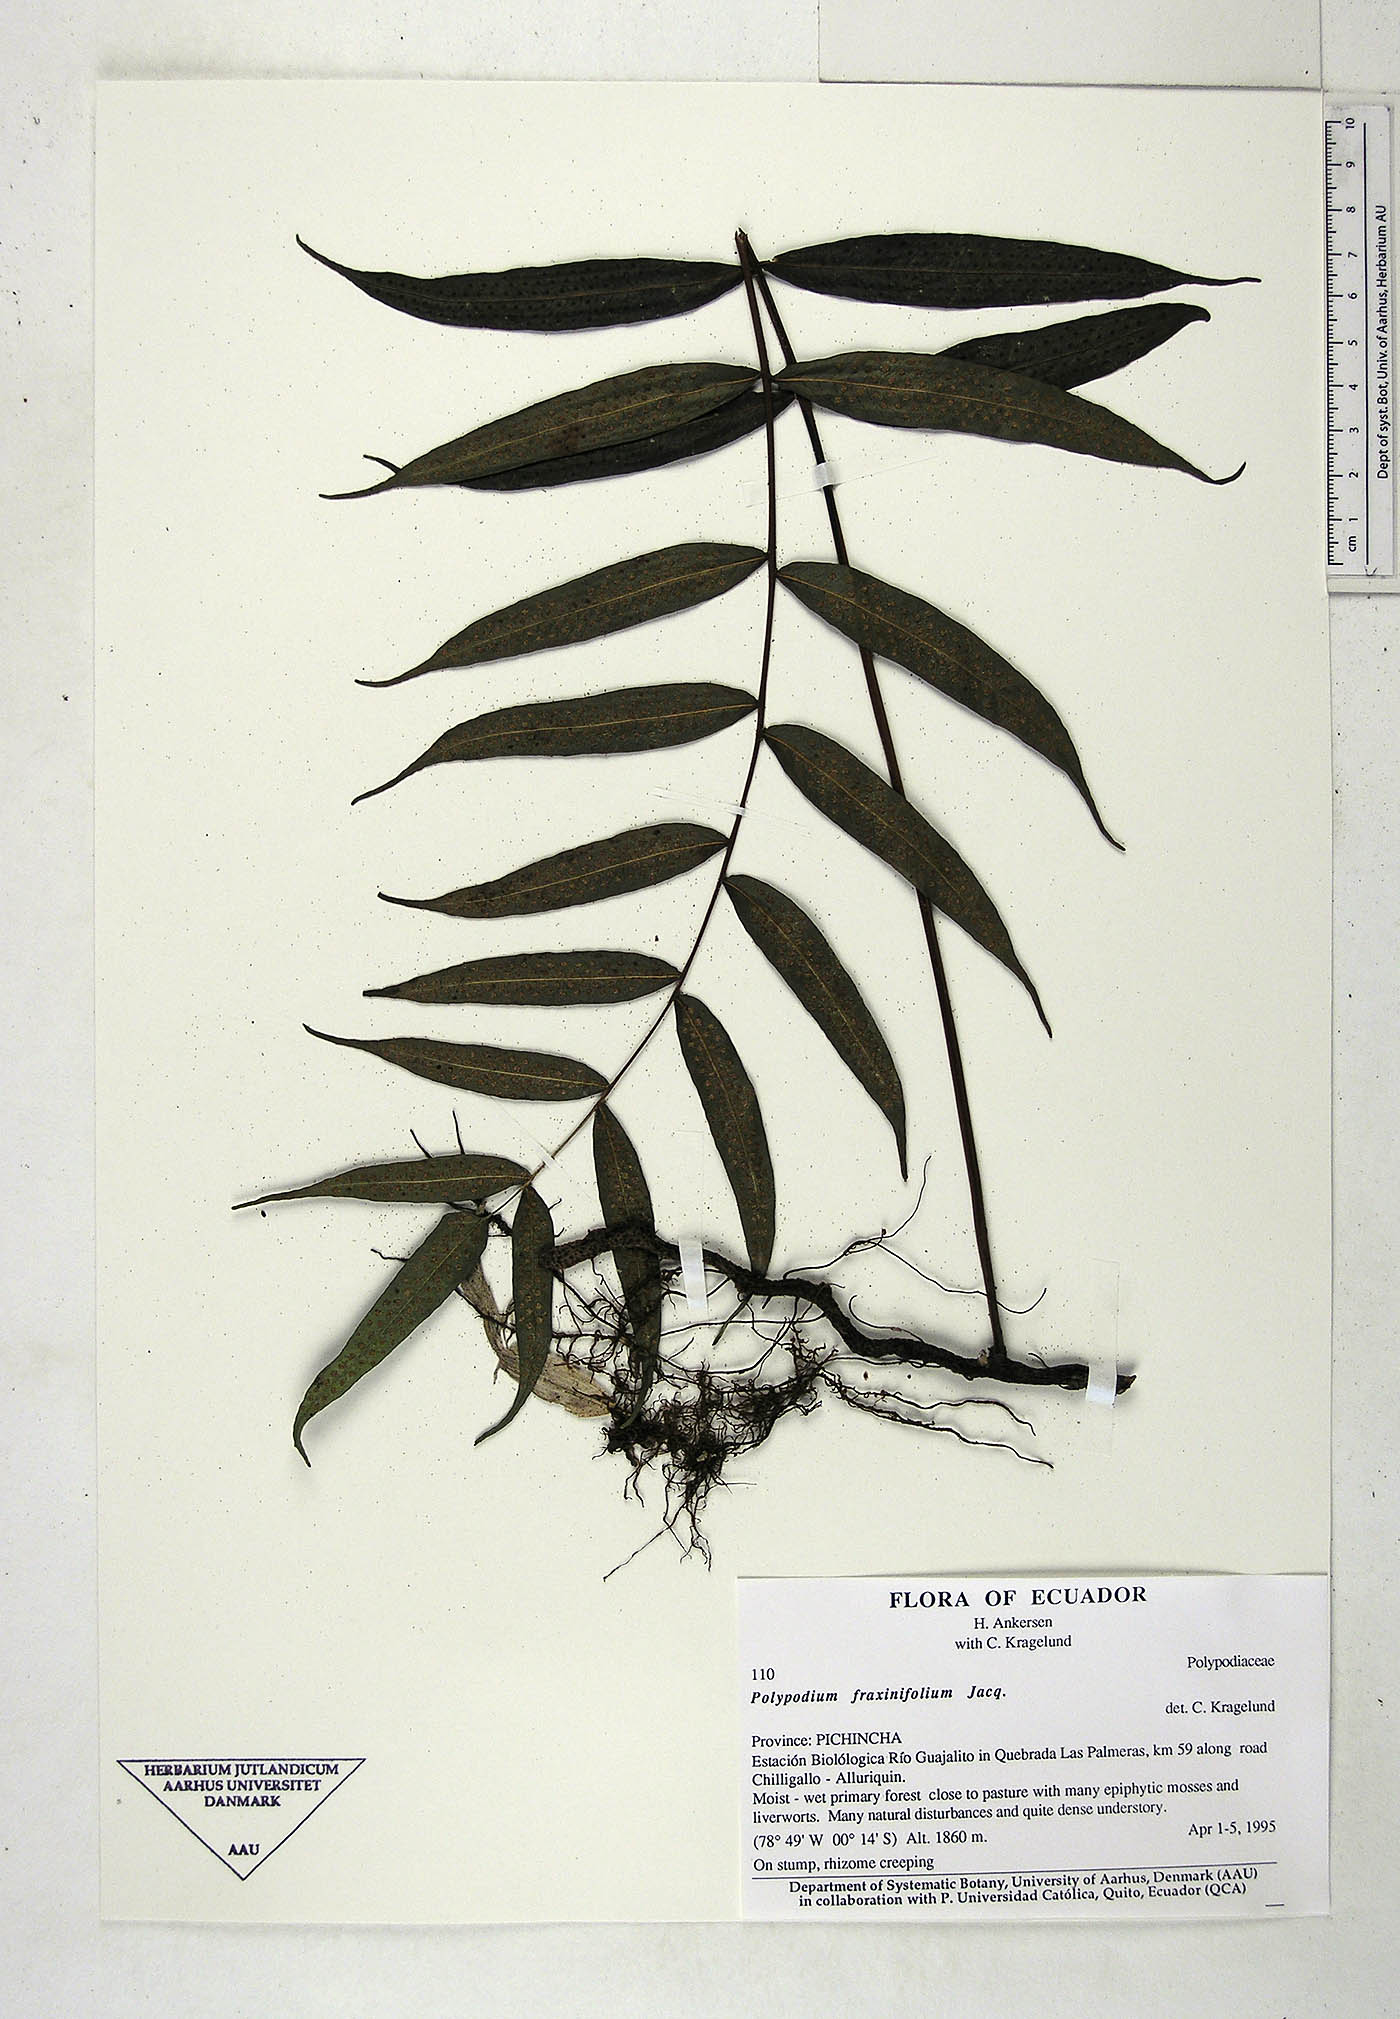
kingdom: Plantae
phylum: Tracheophyta
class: Polypodiopsida
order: Polypodiales
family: Polypodiaceae
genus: Serpocaulon
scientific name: Serpocaulon fraxinifolium
